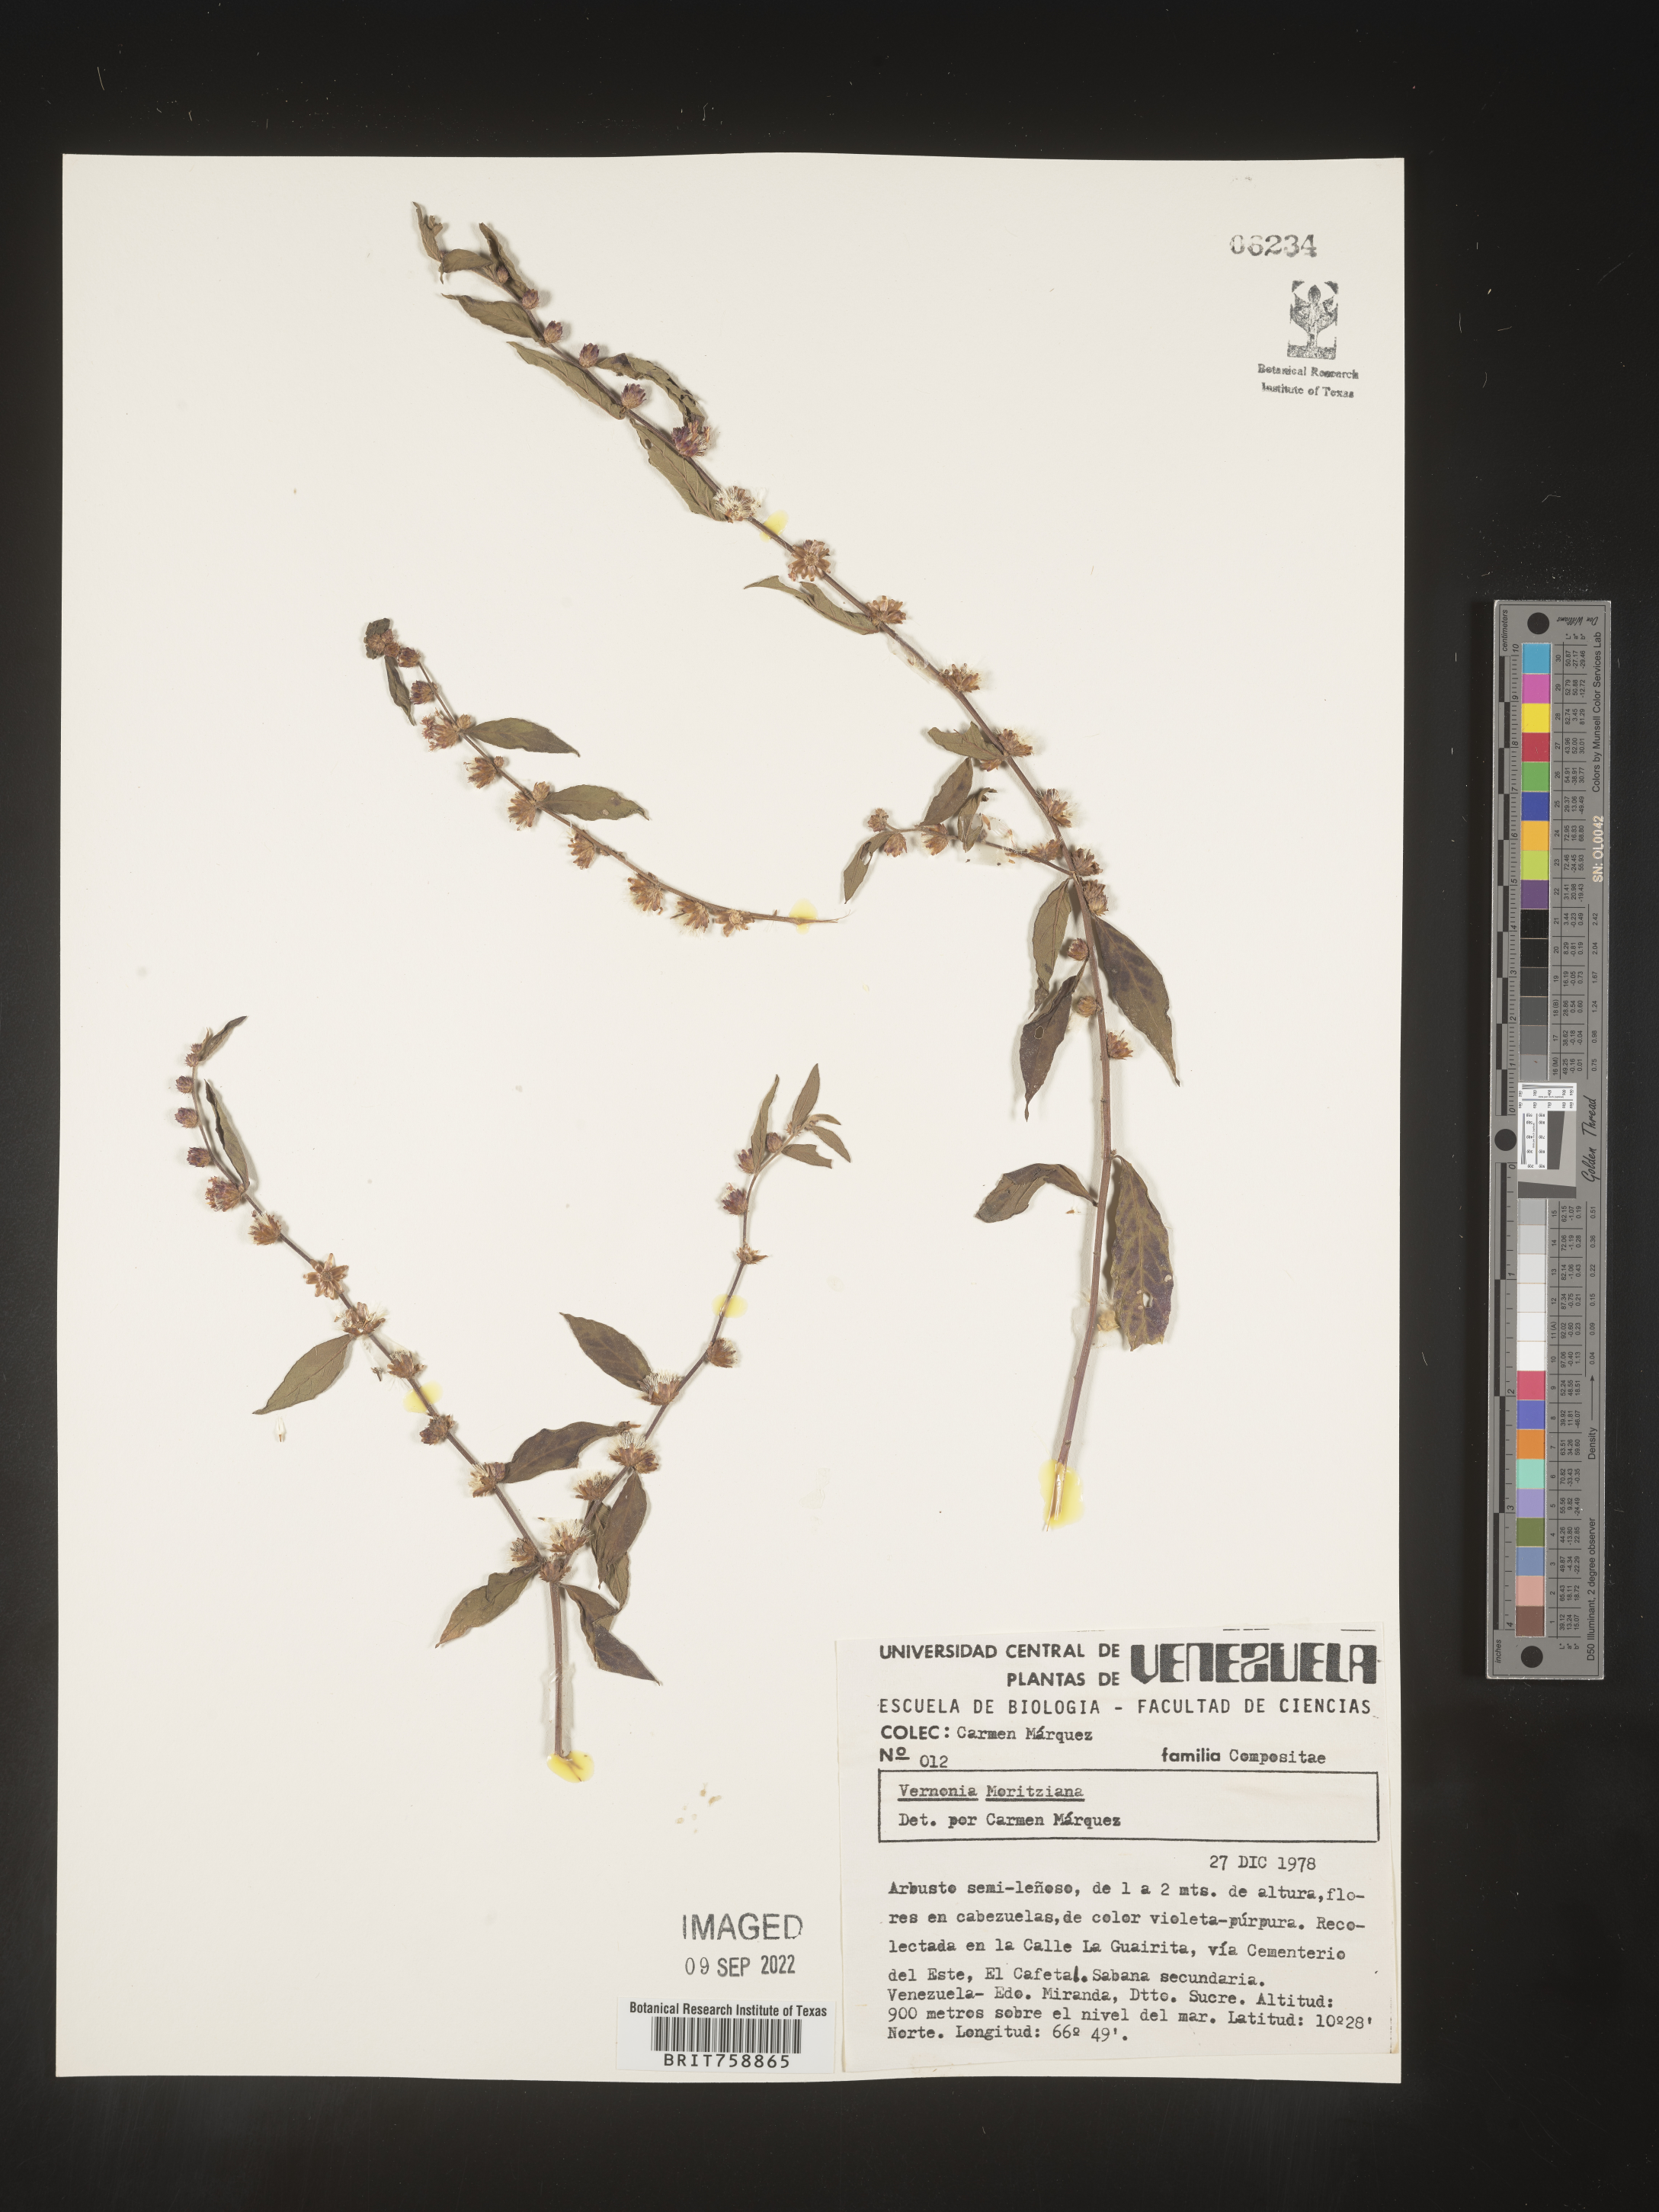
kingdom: Plantae
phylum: Tracheophyta
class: Magnoliopsida
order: Asterales
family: Asteraceae
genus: Vernonia
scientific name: Vernonia
